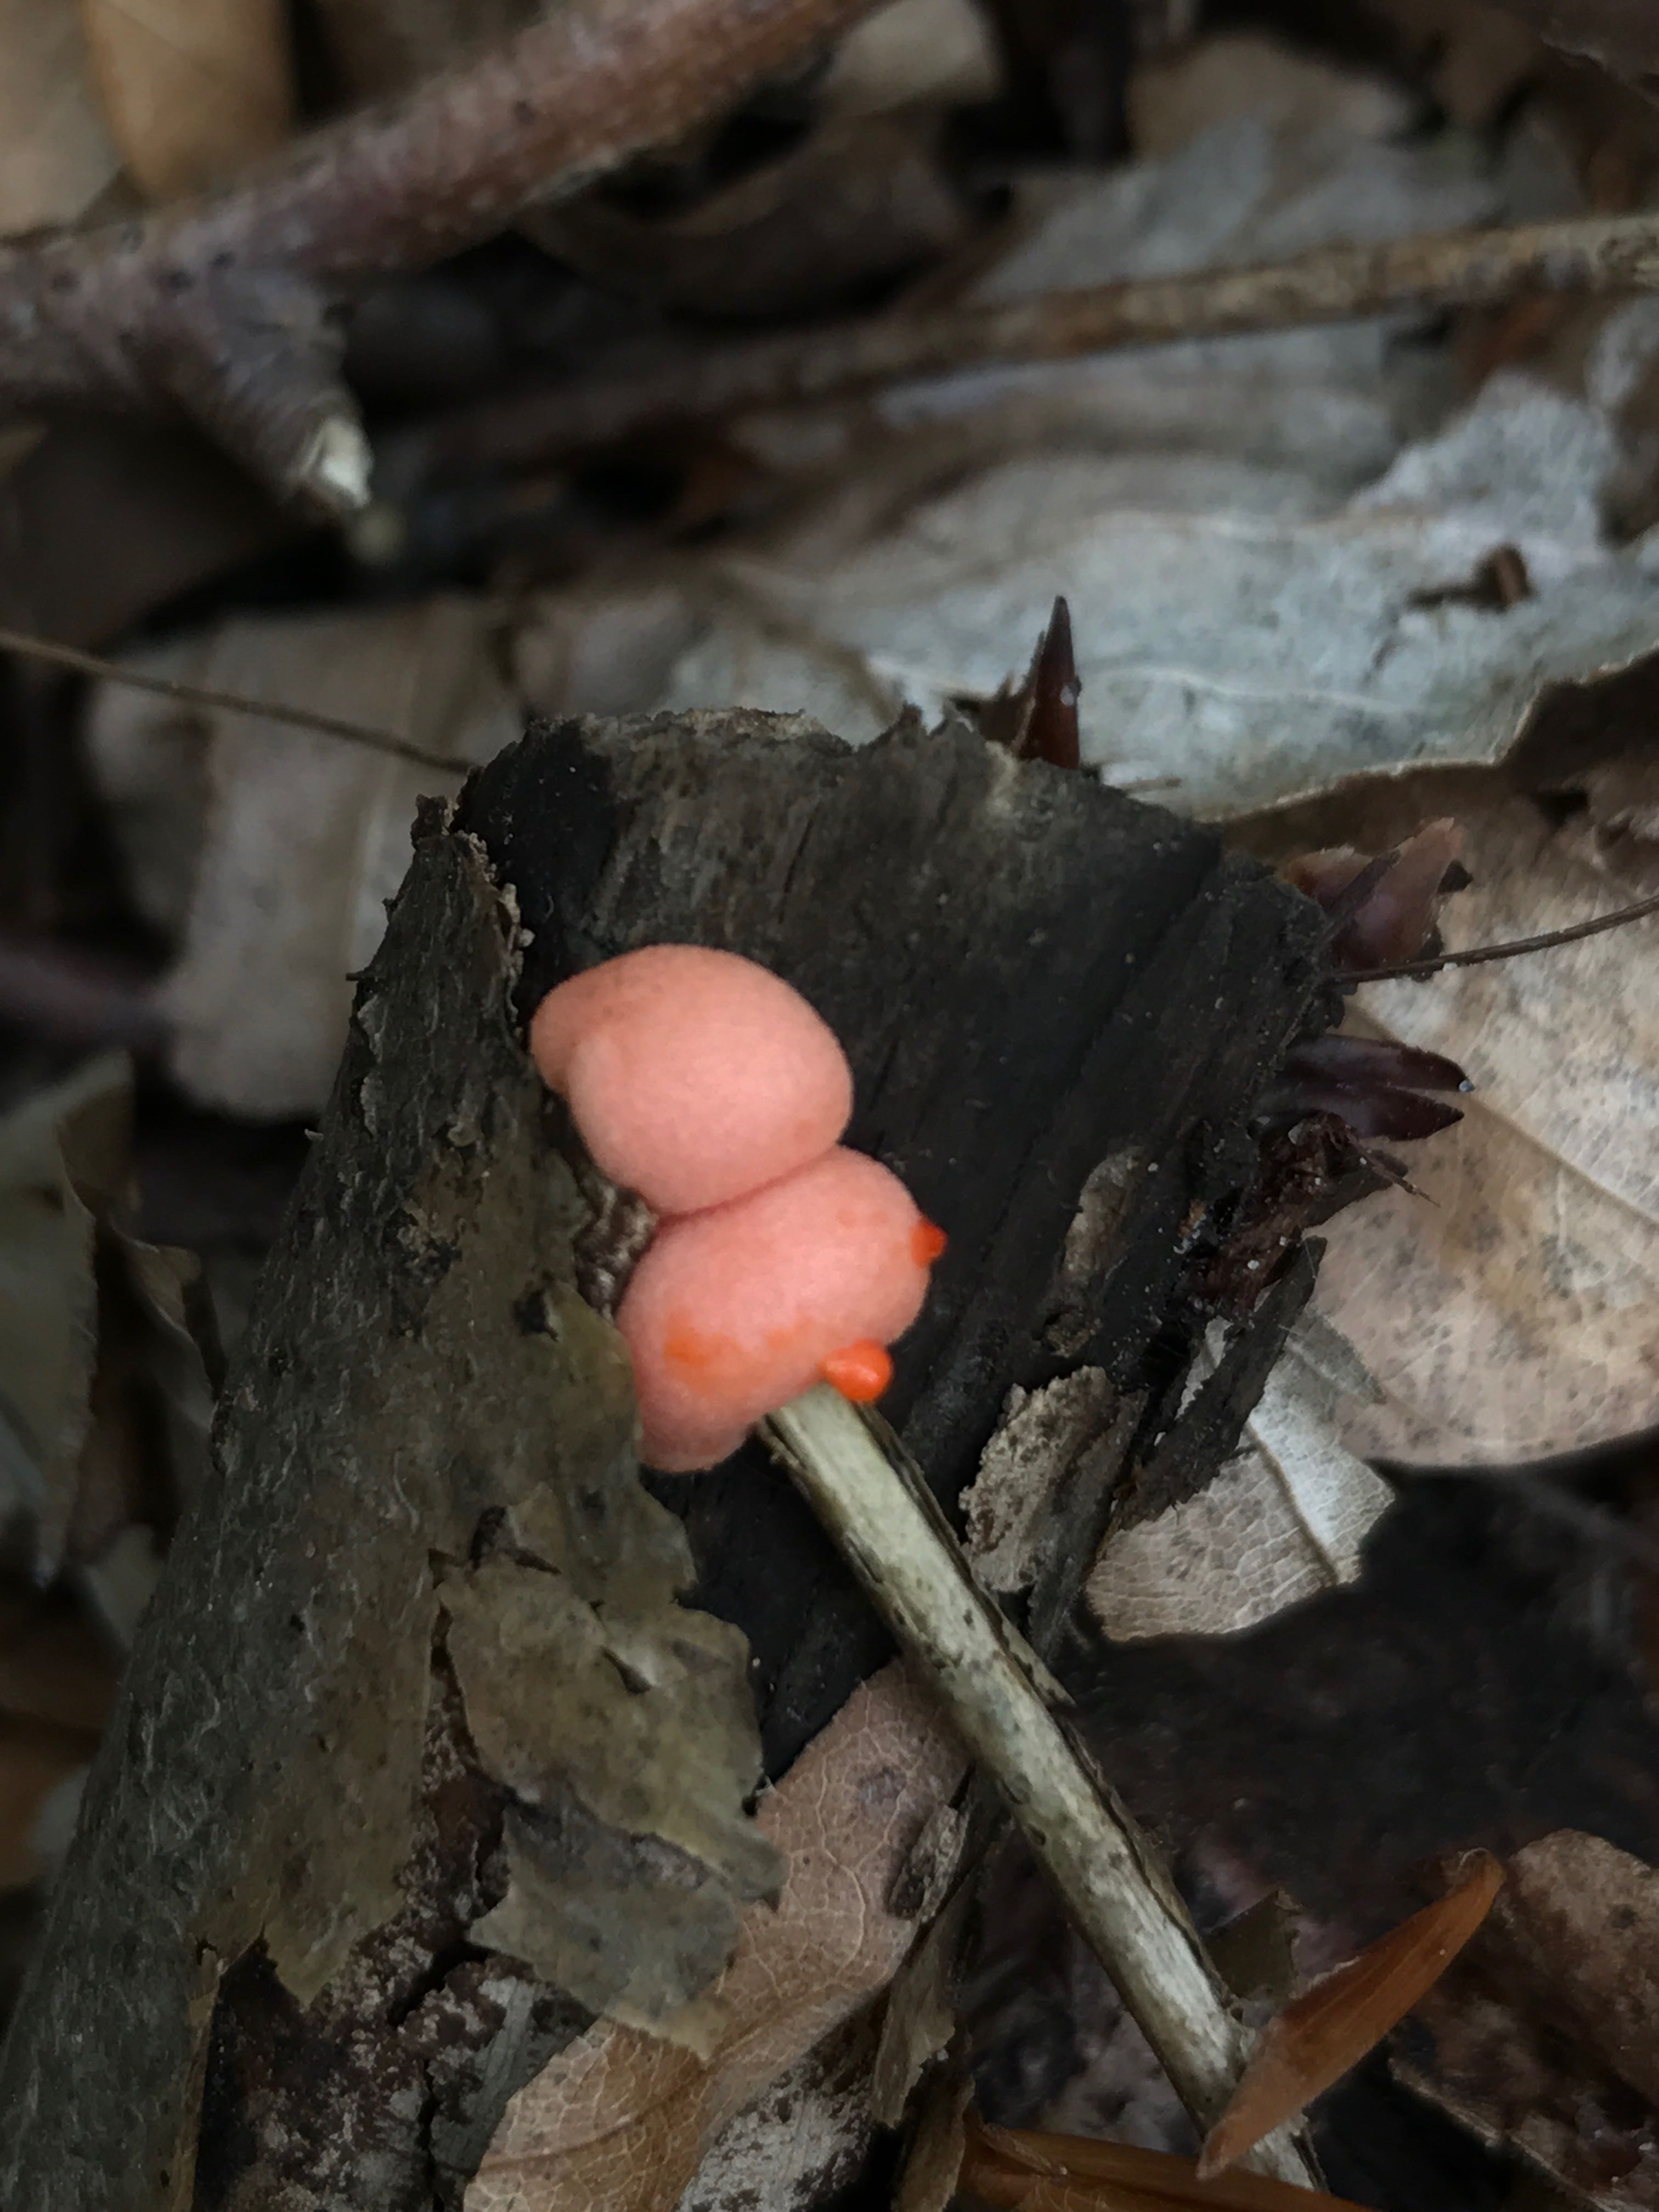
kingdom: Protozoa
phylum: Mycetozoa
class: Myxomycetes
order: Cribrariales
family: Tubiferaceae
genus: Lycogala
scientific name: Lycogala epidendrum
